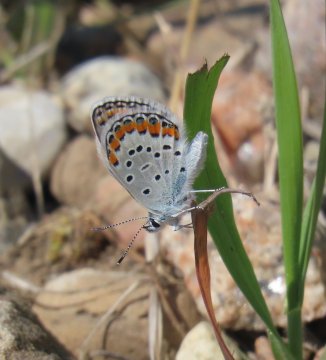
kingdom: Animalia
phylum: Arthropoda
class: Insecta
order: Lepidoptera
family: Lycaenidae
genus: Lycaeides
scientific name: Lycaeides melissa
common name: Melissa Blue
